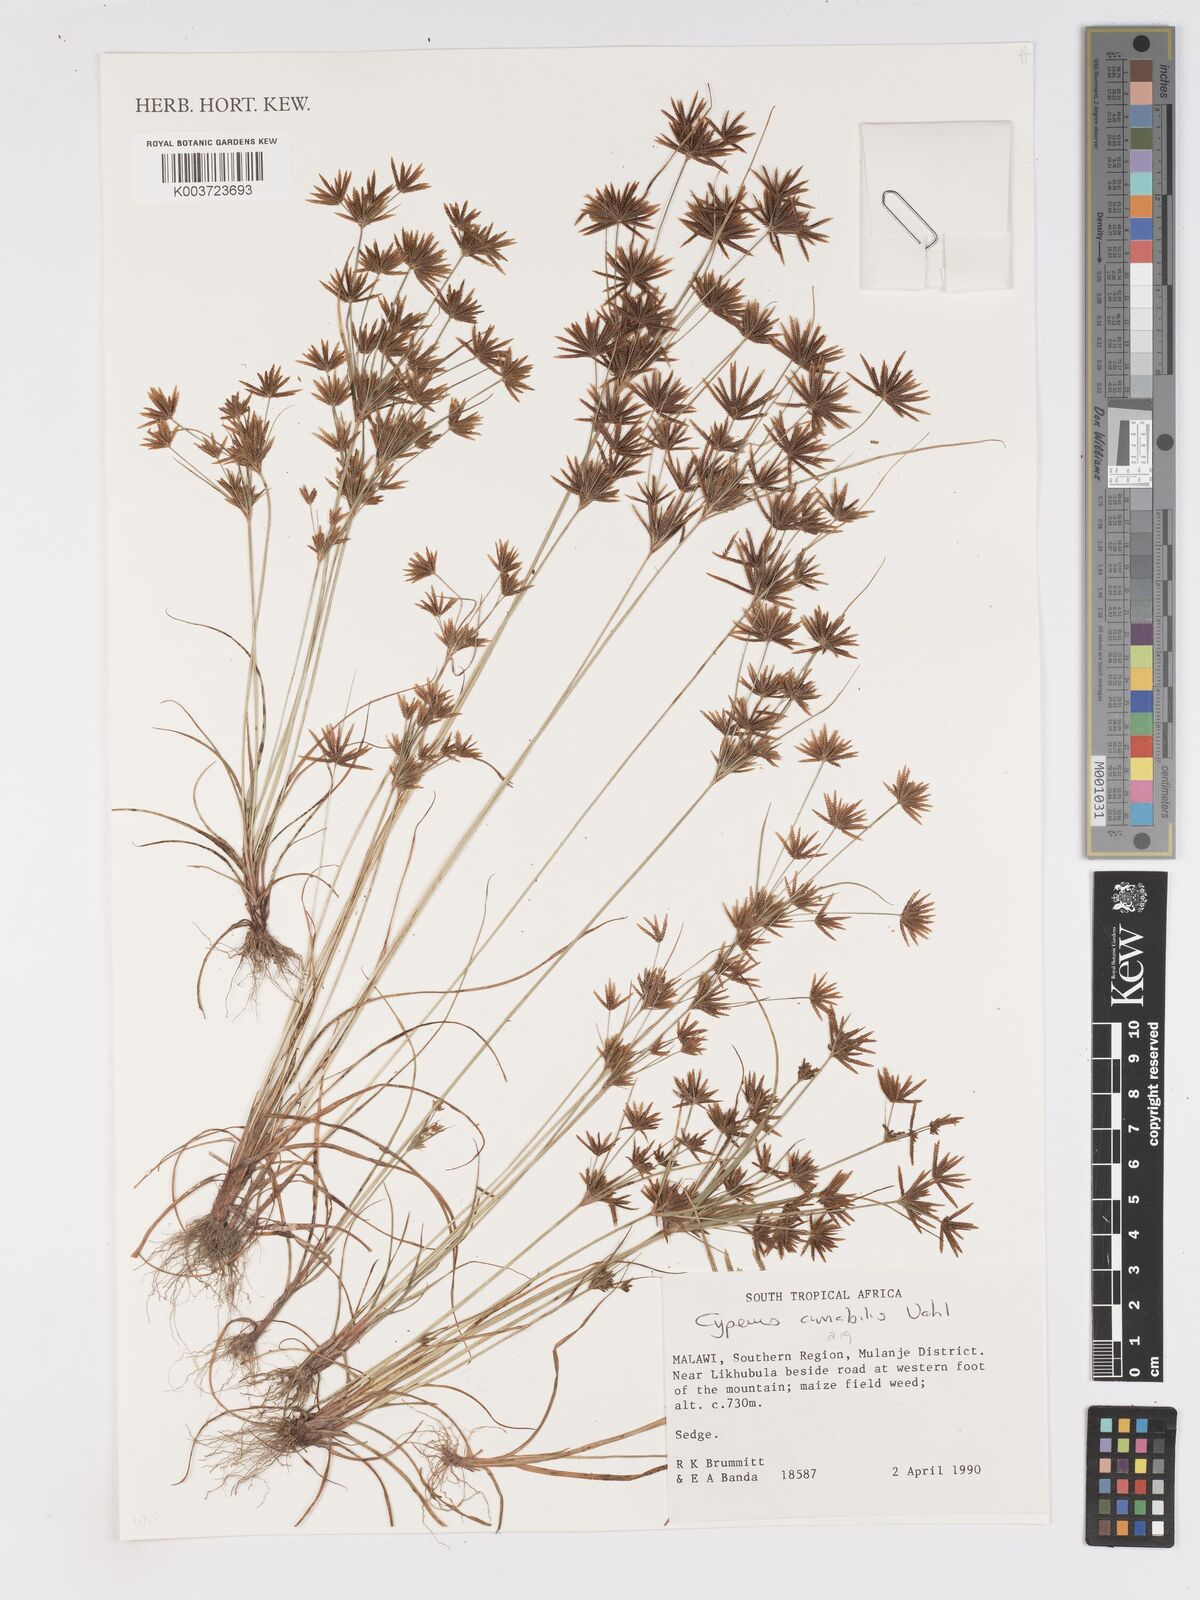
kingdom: Plantae
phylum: Tracheophyta
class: Liliopsida
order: Poales
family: Cyperaceae
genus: Cyperus
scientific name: Cyperus amabilis
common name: Foothill flat sedge
